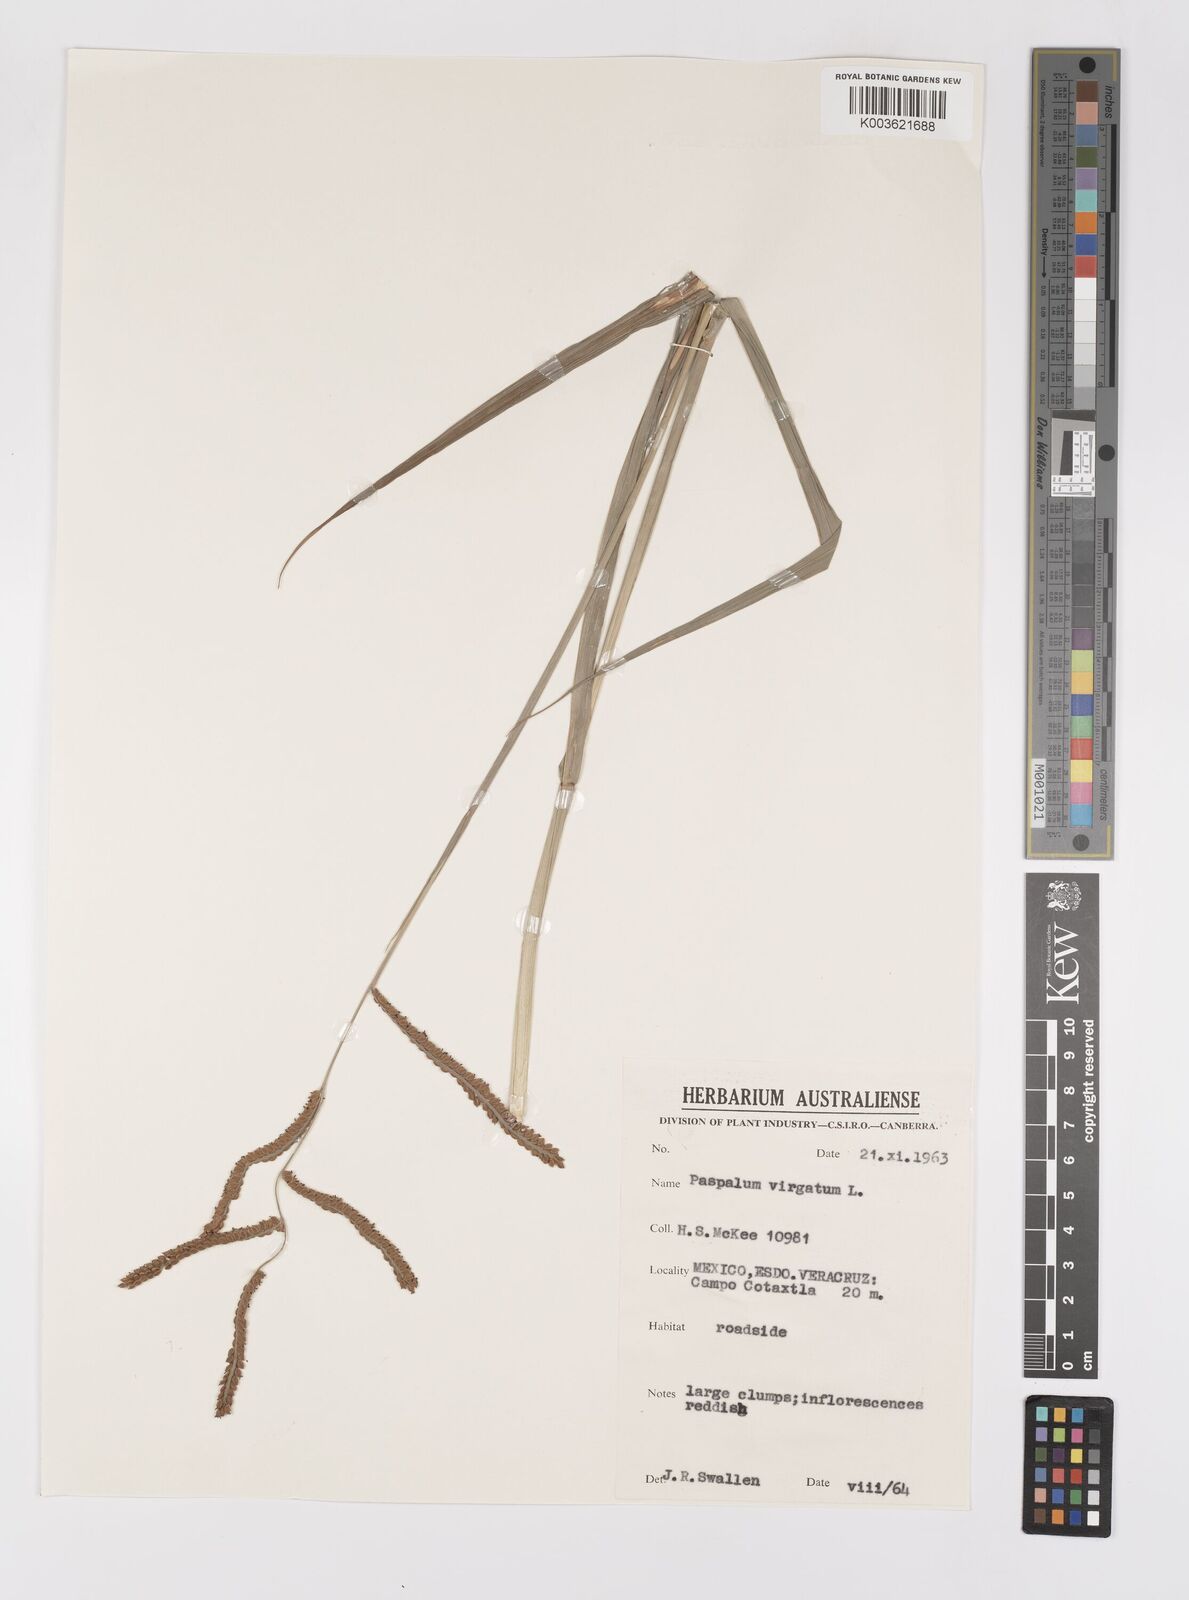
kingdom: Plantae
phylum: Tracheophyta
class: Liliopsida
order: Poales
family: Poaceae
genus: Paspalum
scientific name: Paspalum virgatum
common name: Talquezal
